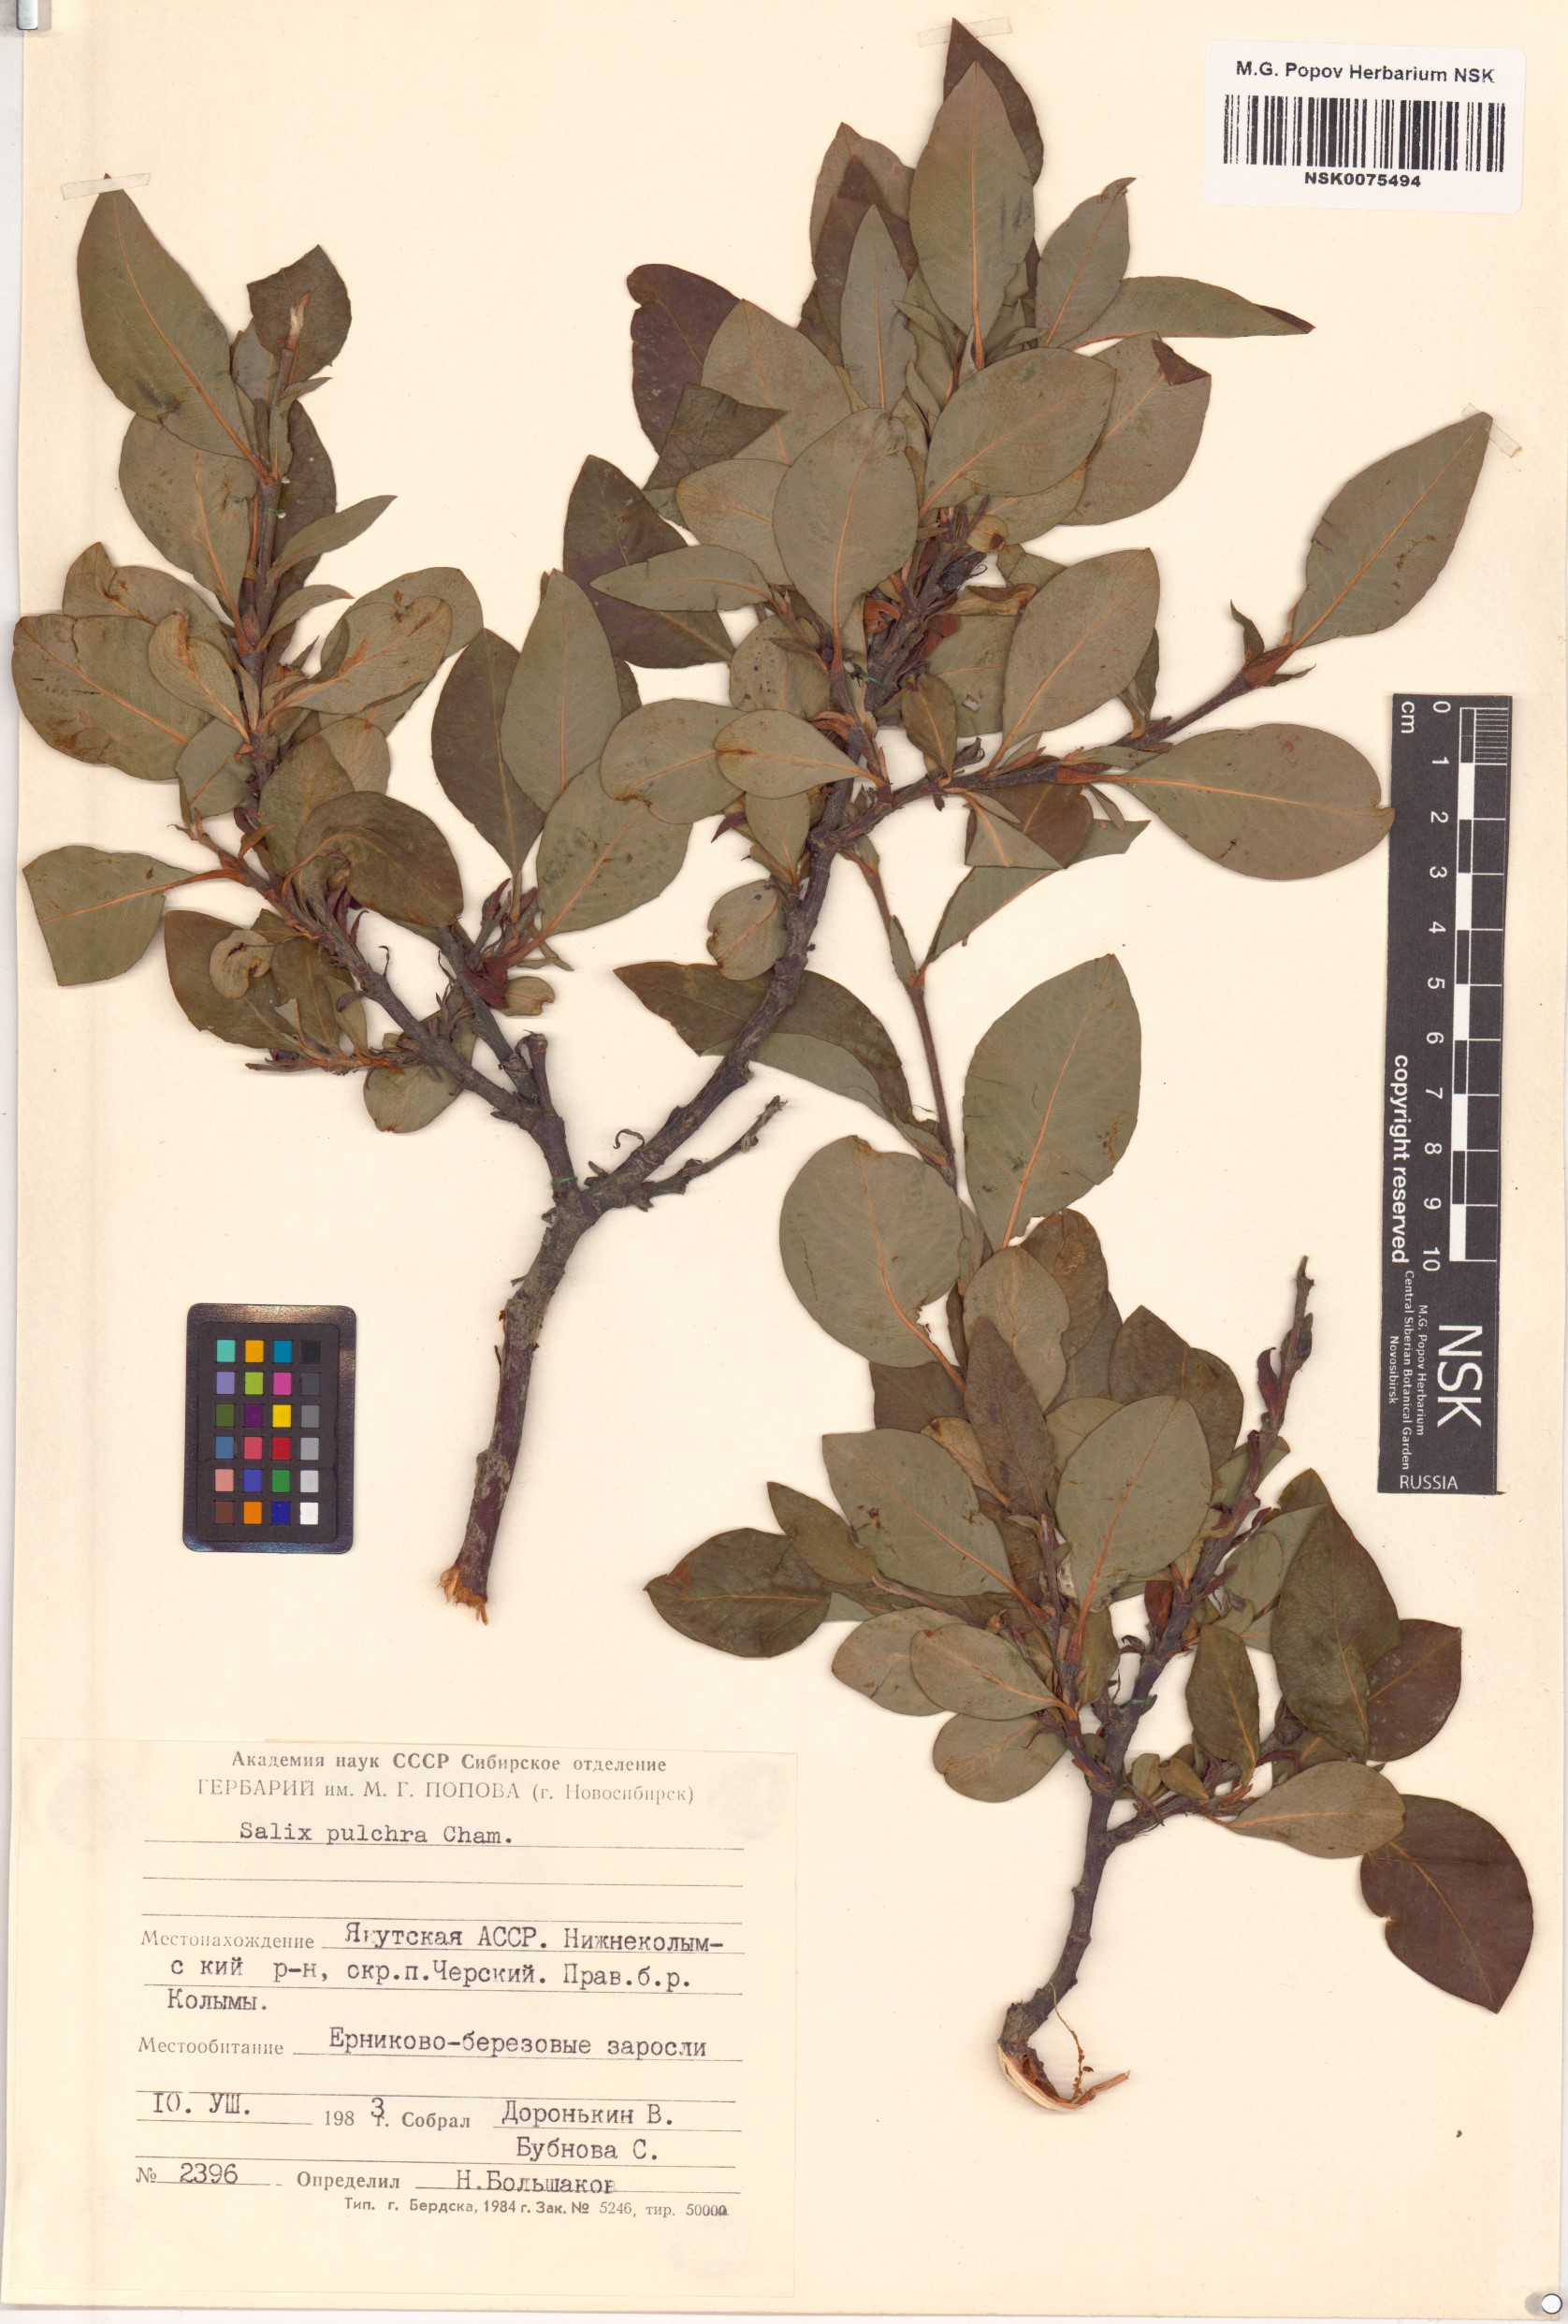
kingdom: Plantae
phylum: Tracheophyta
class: Magnoliopsida
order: Malpighiales
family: Salicaceae
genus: Salix
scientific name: Salix pulchra
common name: Diamond-leaved willow
